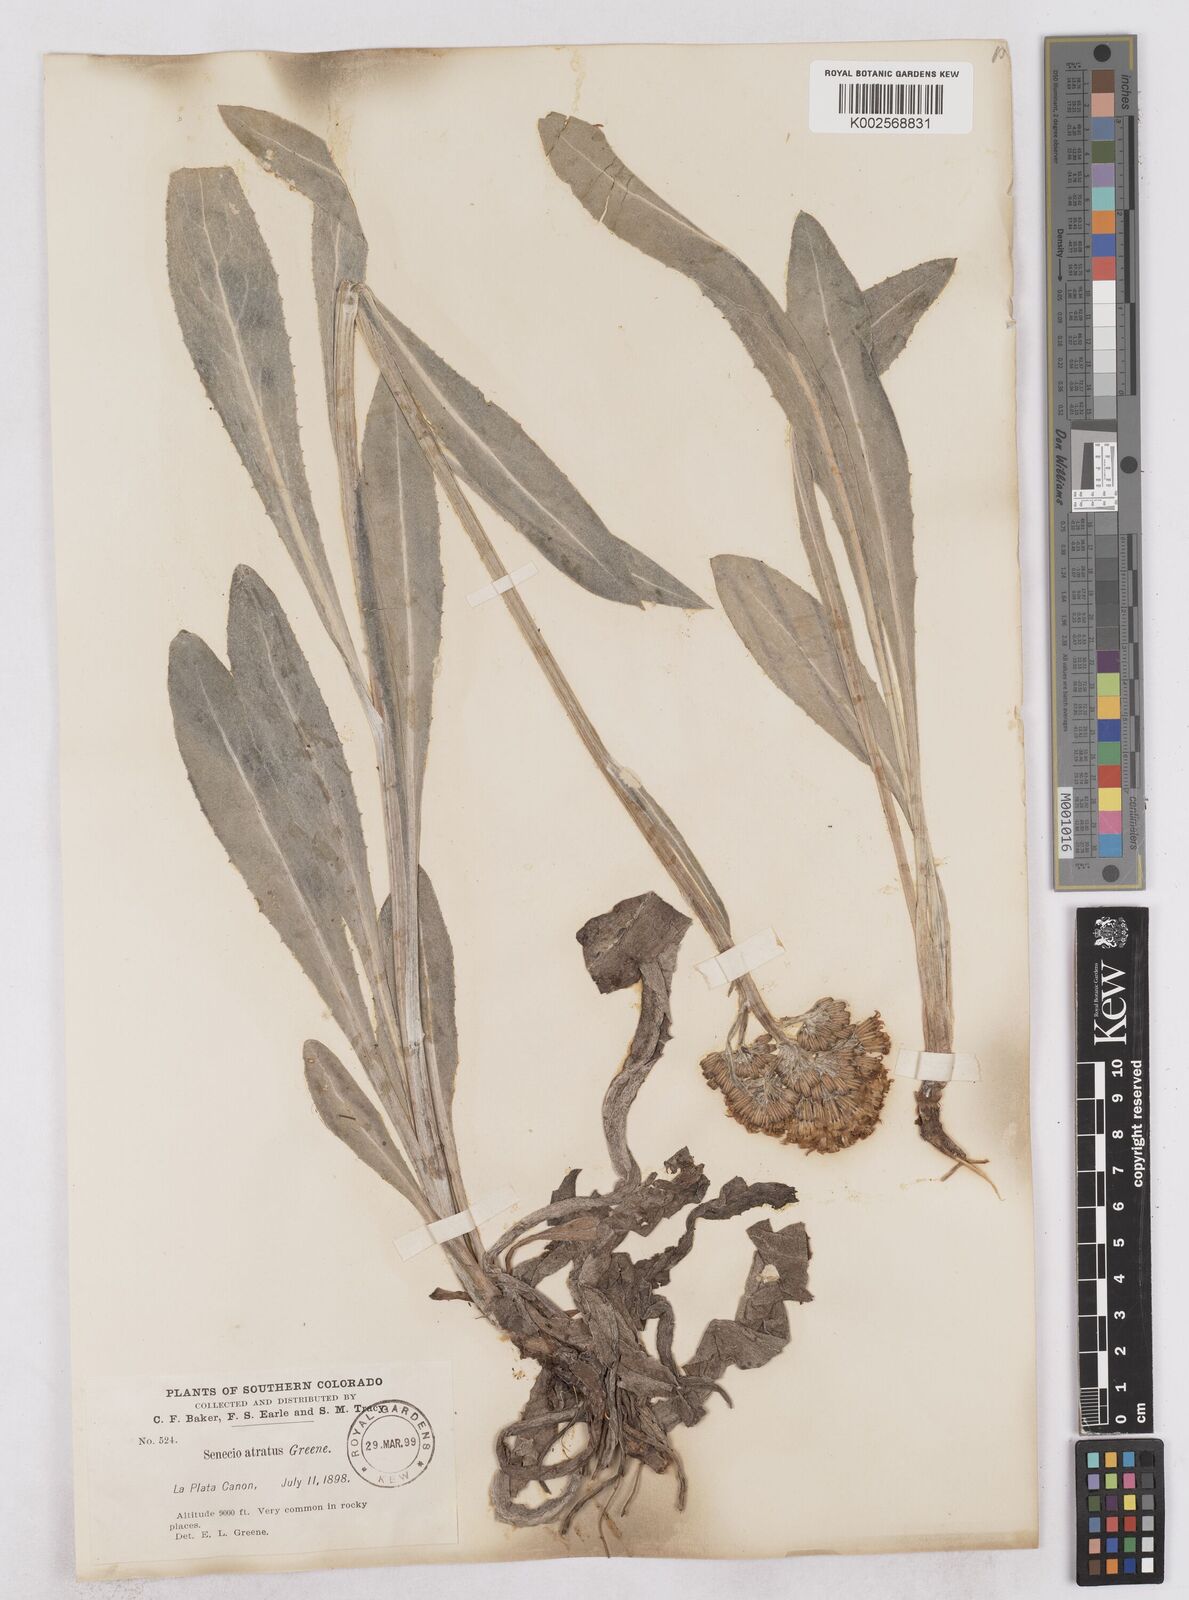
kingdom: Plantae
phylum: Tracheophyta
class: Magnoliopsida
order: Asterales
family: Asteraceae
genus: Senecio
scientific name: Senecio atratus
